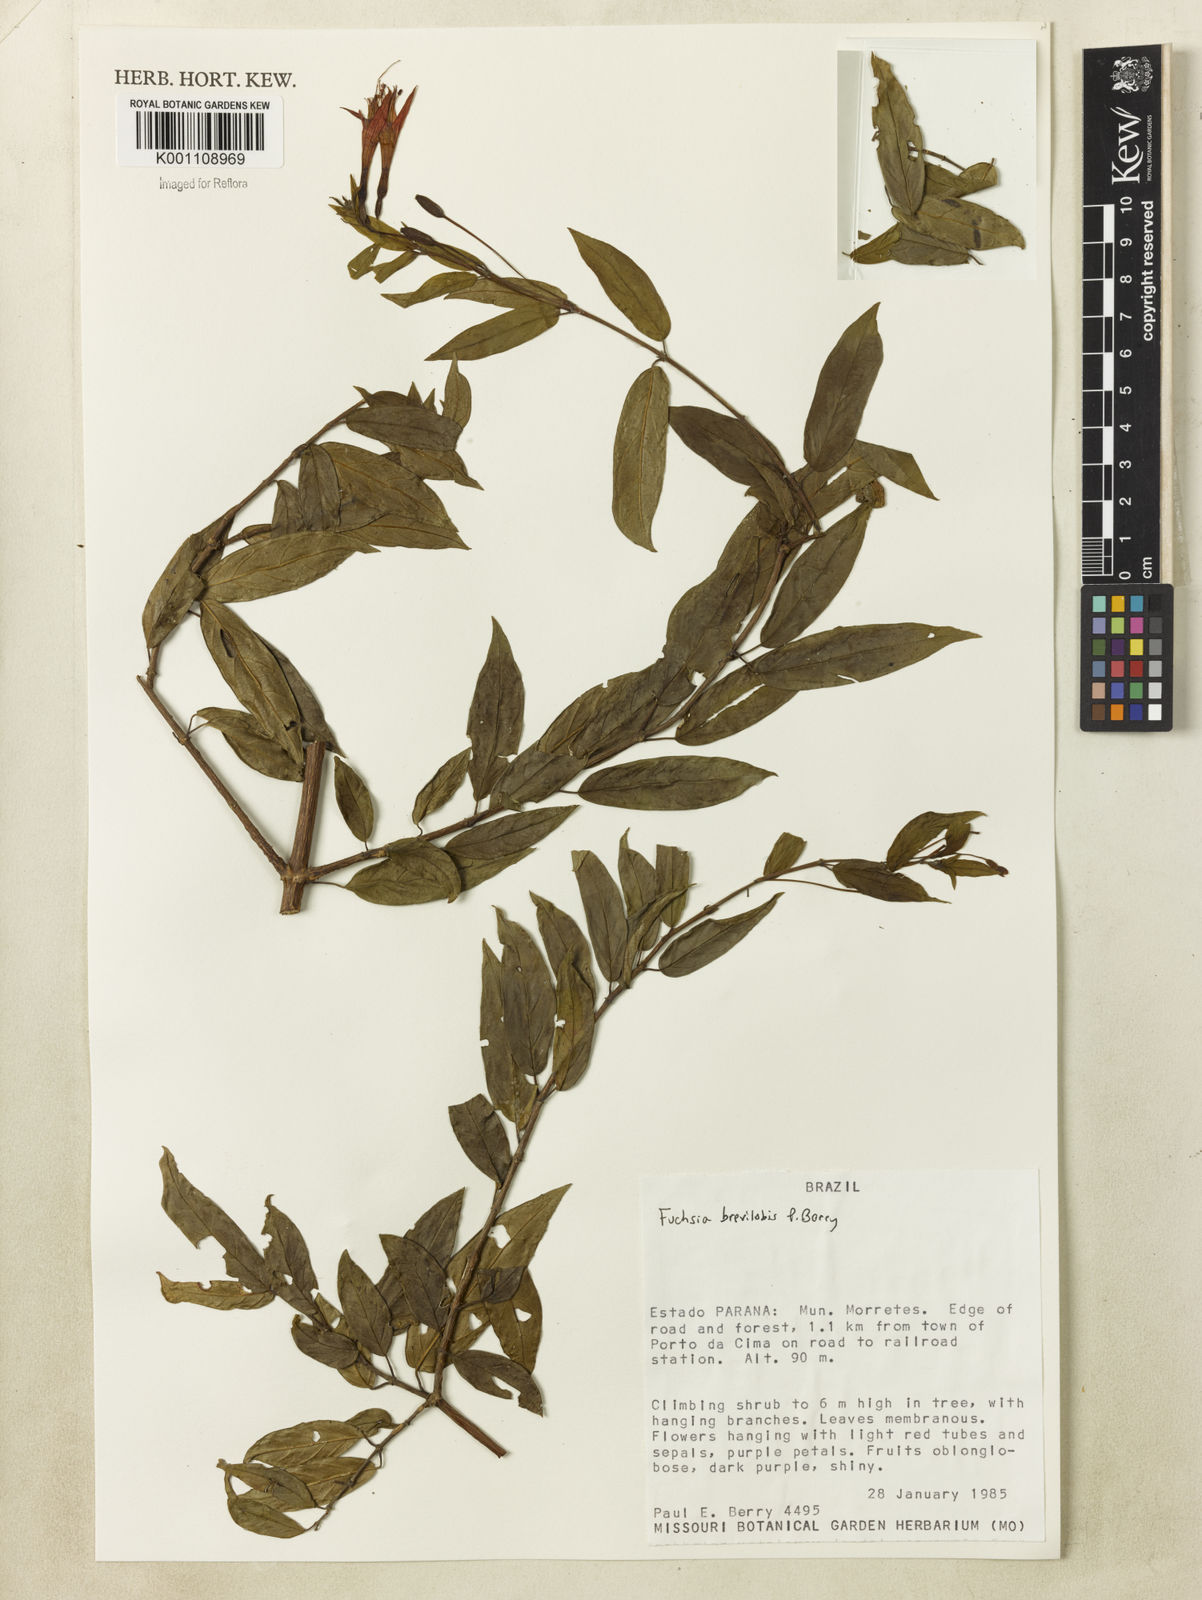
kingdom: Plantae
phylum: Tracheophyta
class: Magnoliopsida
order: Myrtales
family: Onagraceae
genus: Fuchsia
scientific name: Fuchsia brevilobis
